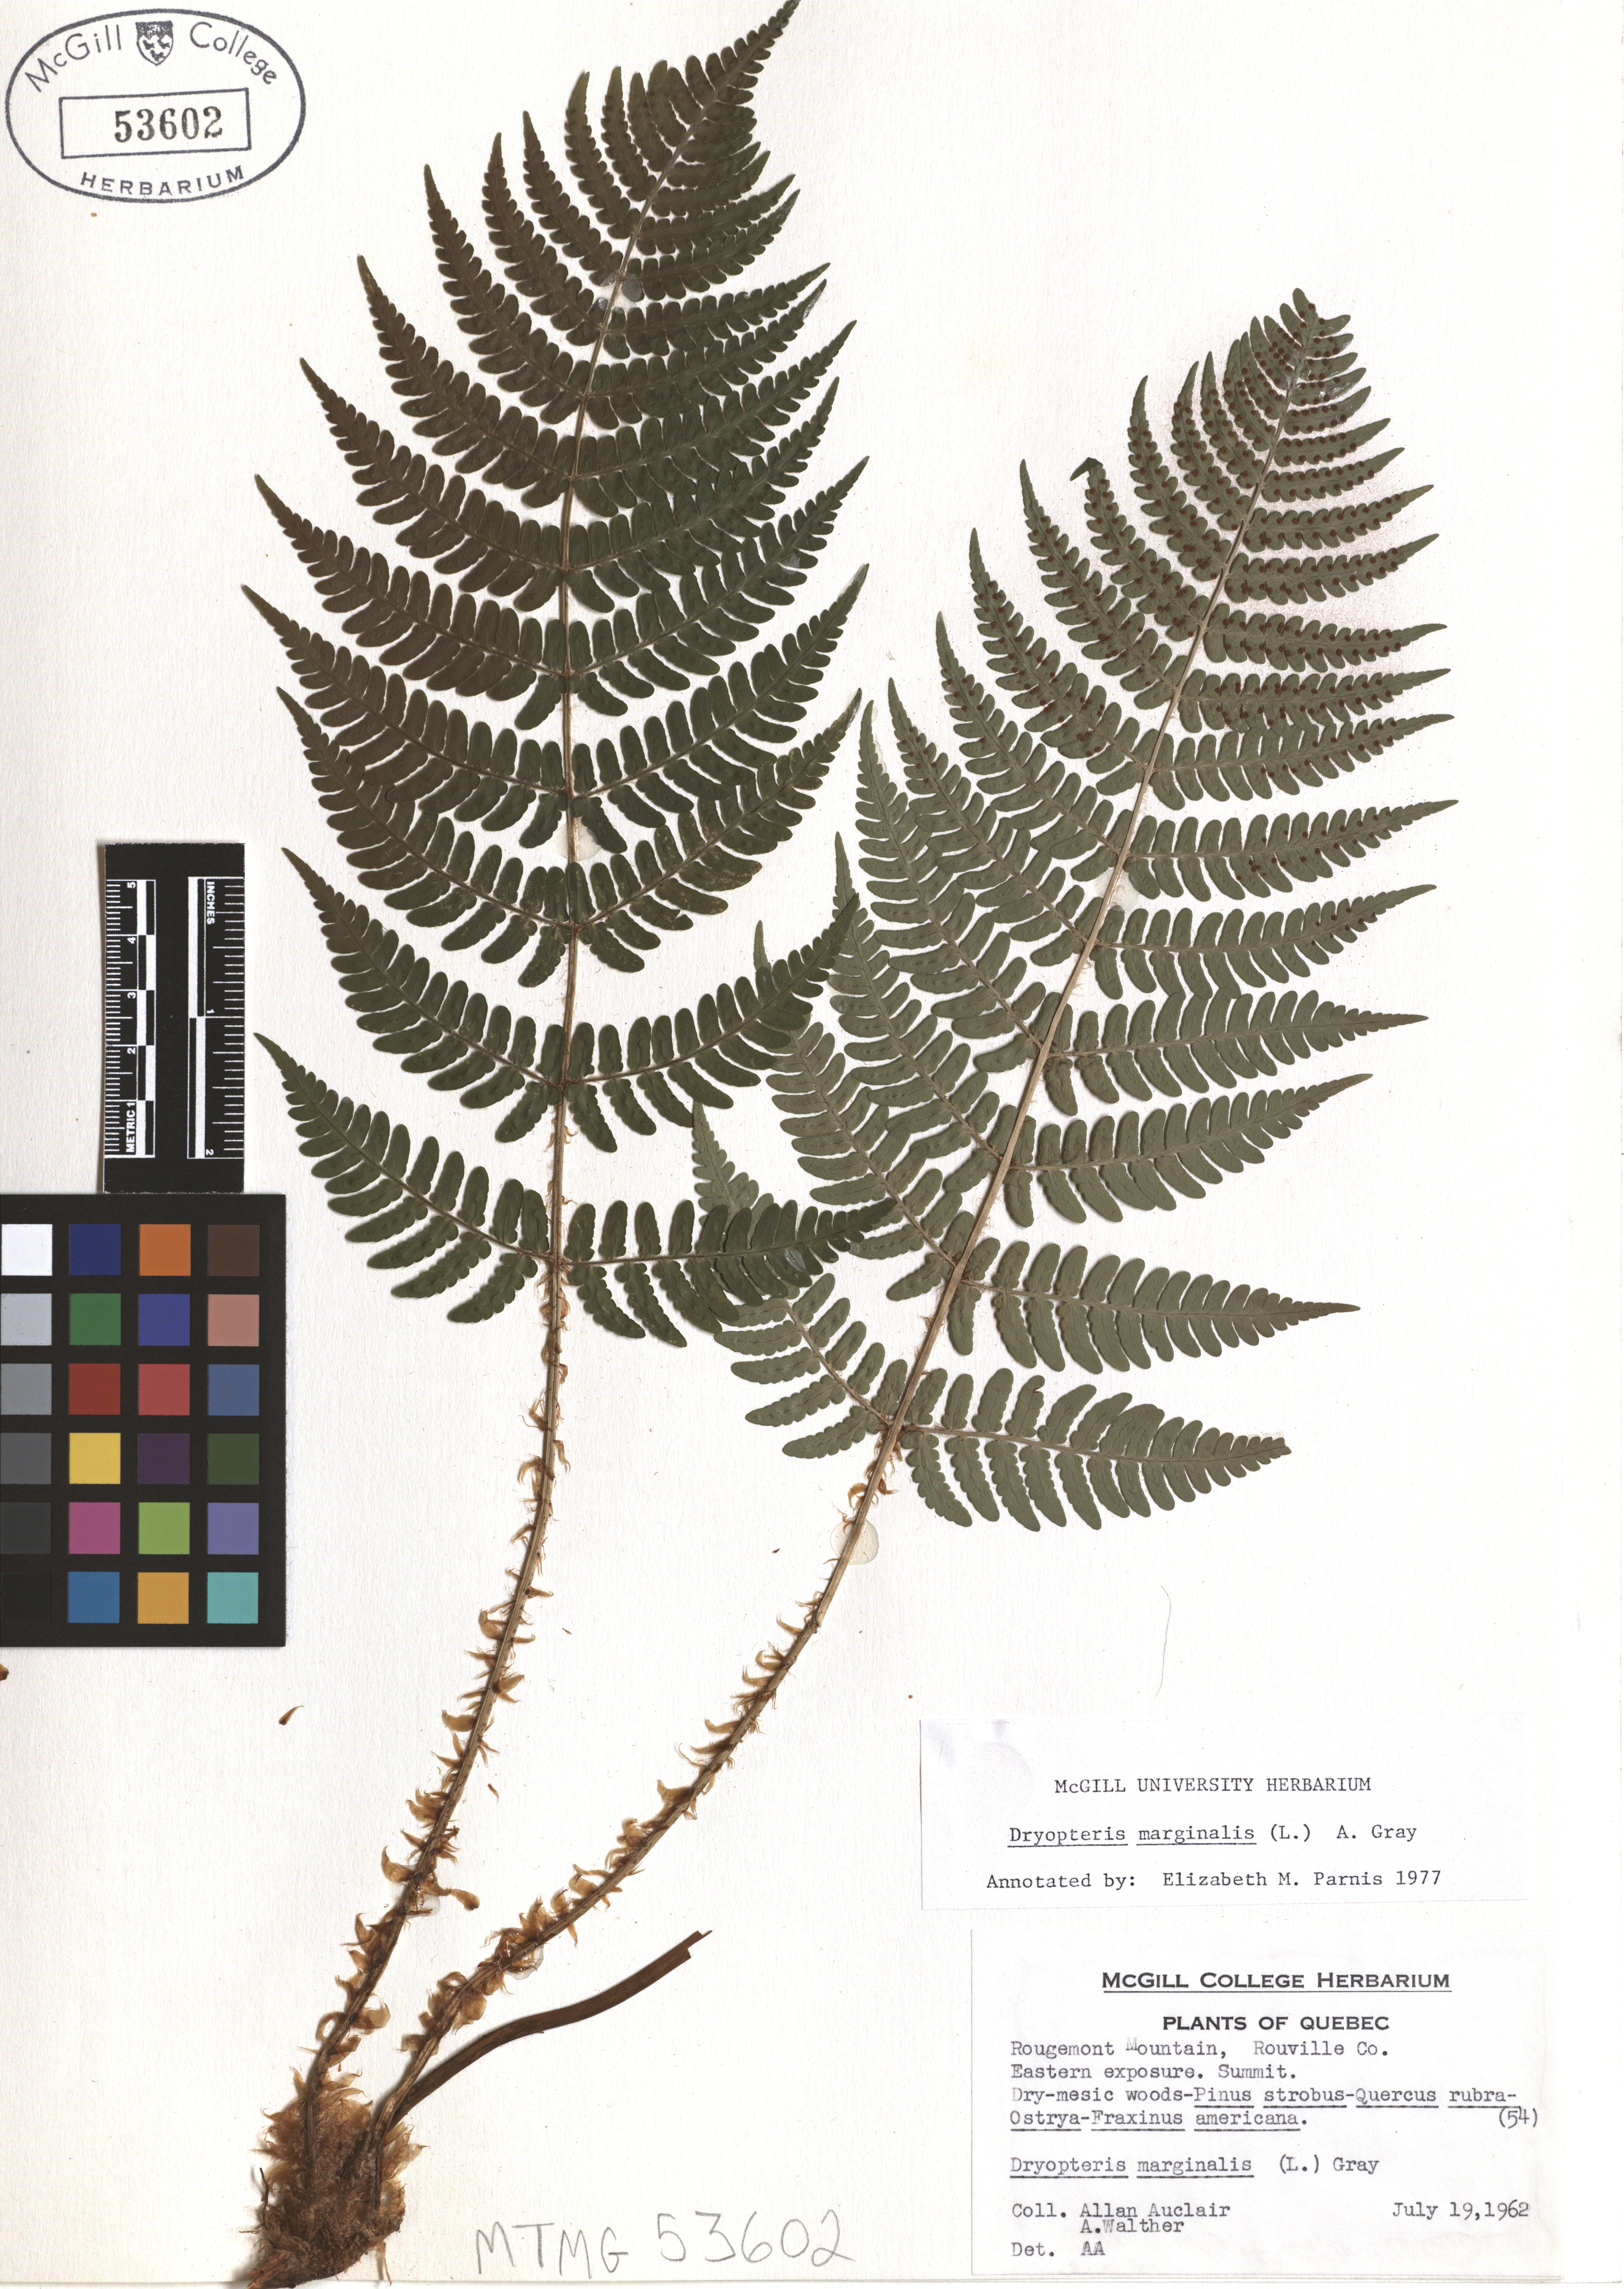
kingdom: Plantae
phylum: Tracheophyta
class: Polypodiopsida
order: Polypodiales
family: Dryopteridaceae
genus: Dryopteris
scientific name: Dryopteris marginalis
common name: Marginal wood fern
